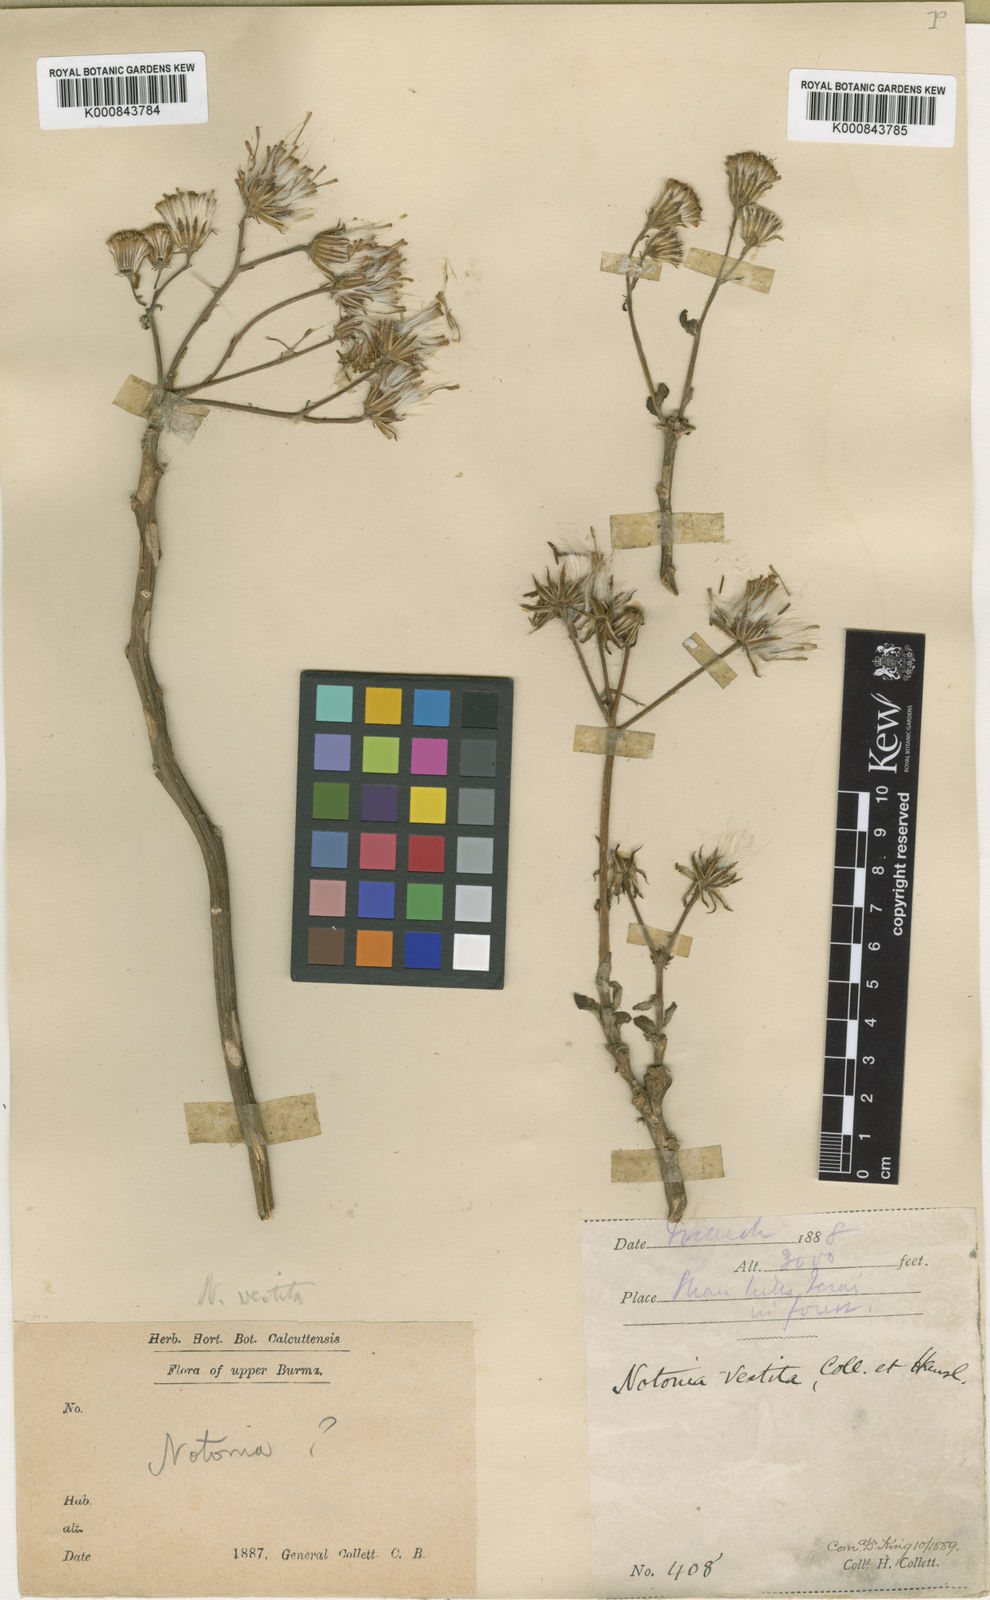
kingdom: Plantae
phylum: Tracheophyta
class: Magnoliopsida
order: Asterales
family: Asteraceae
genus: Gynura
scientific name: Gynura nepalensis
